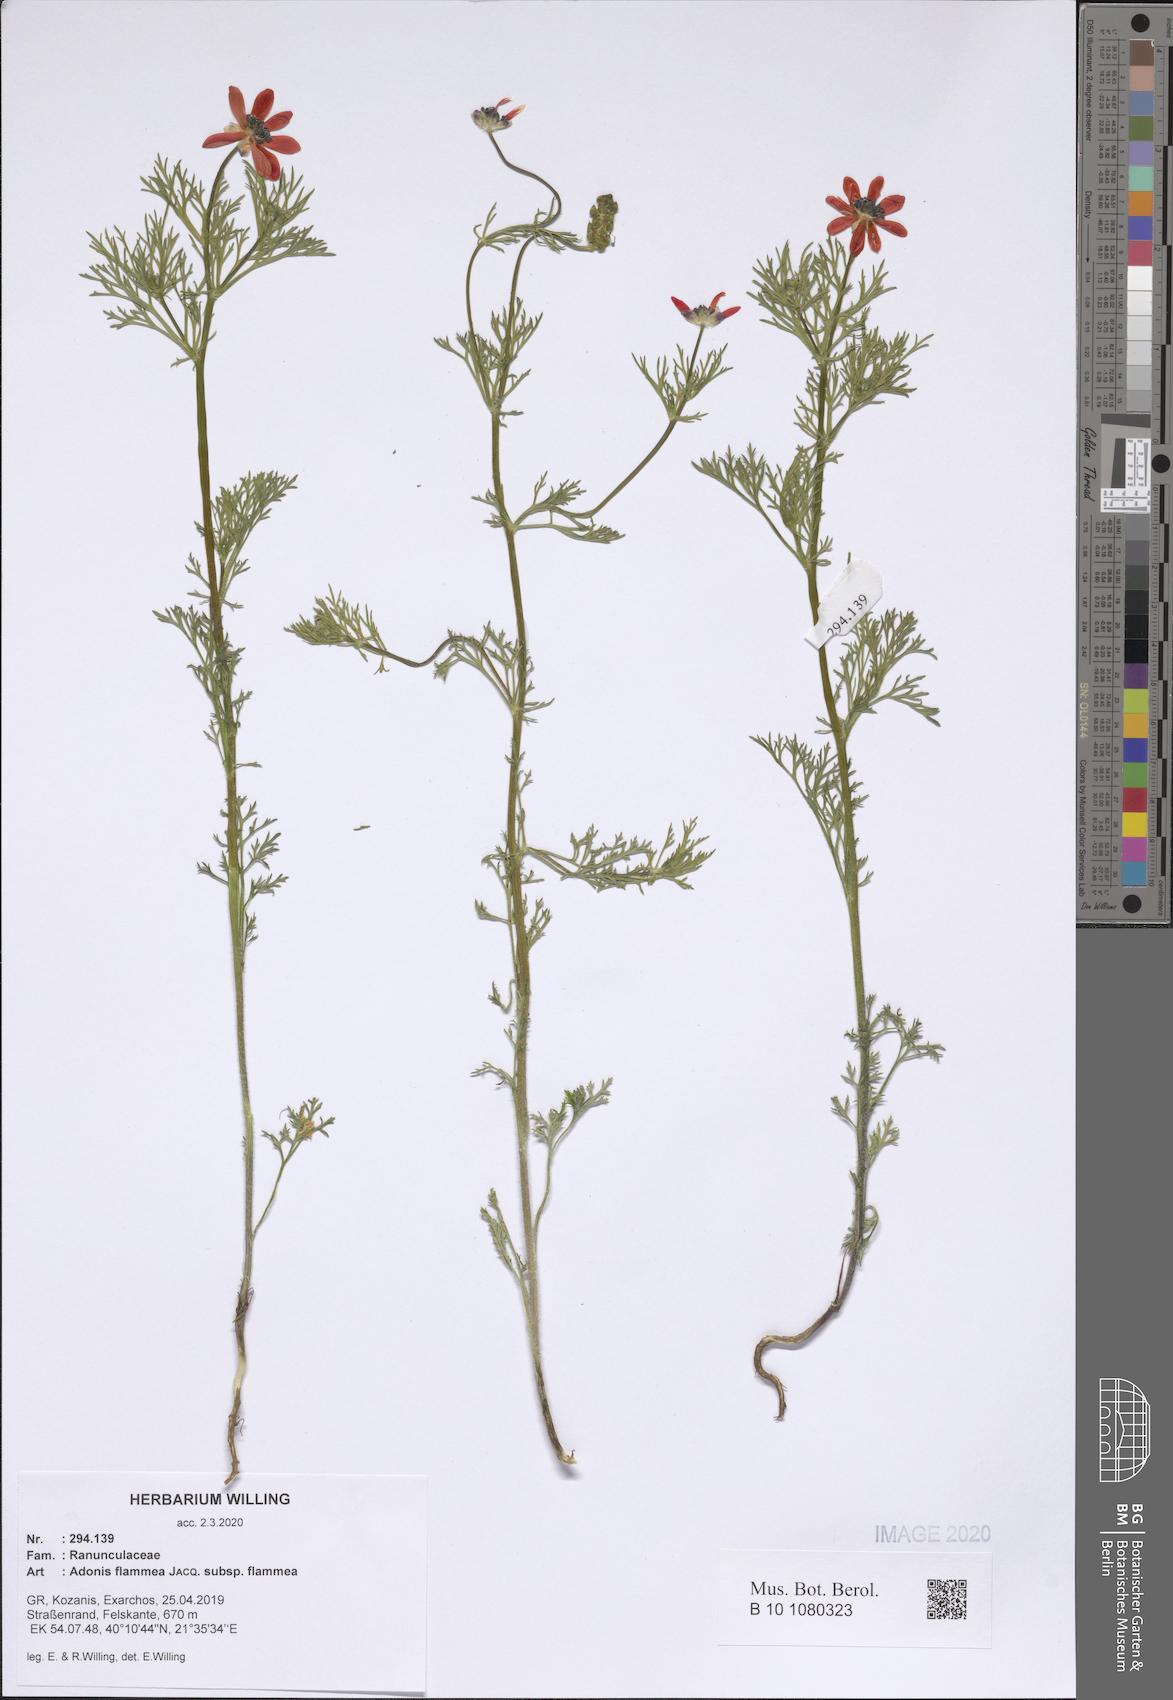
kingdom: Plantae
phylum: Tracheophyta
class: Magnoliopsida
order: Ranunculales
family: Ranunculaceae
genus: Adonis
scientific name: Adonis flammea
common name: Large pheasant's-eye
